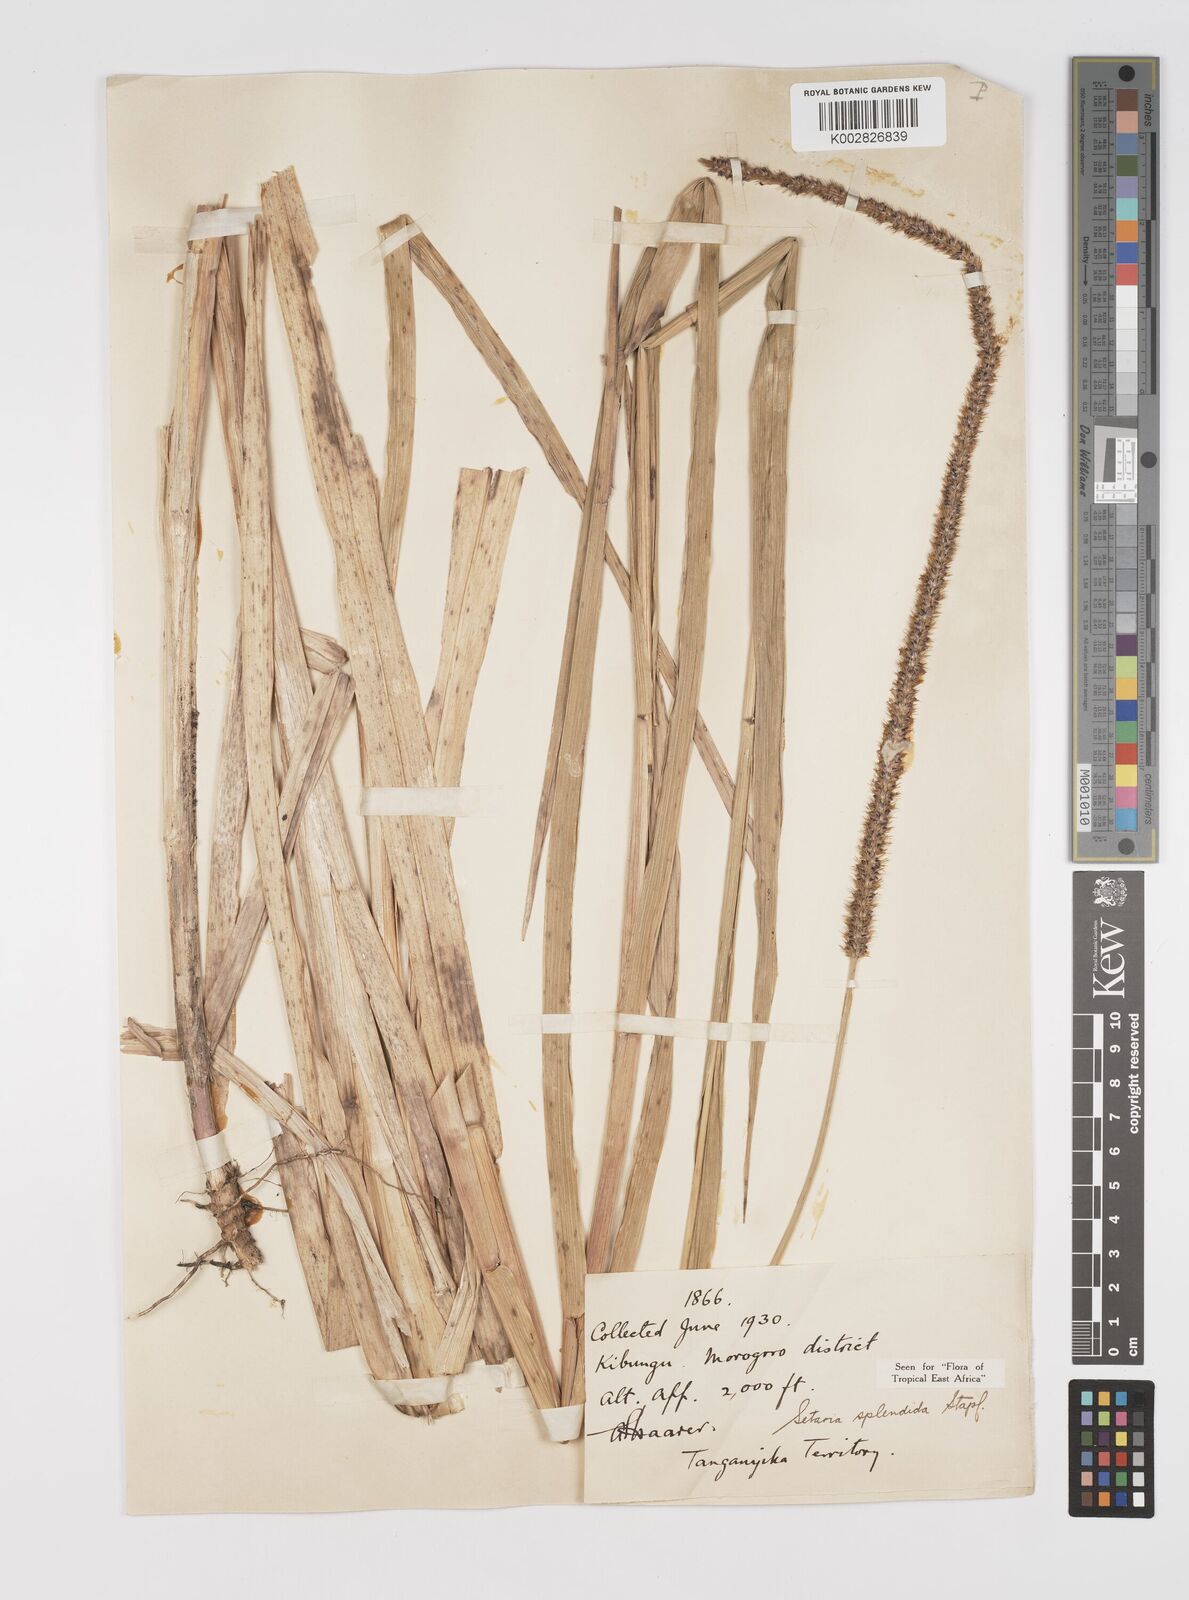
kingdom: Plantae
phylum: Tracheophyta
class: Liliopsida
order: Poales
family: Poaceae
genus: Setaria
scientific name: Setaria sphacelata
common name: African bristlegrass
